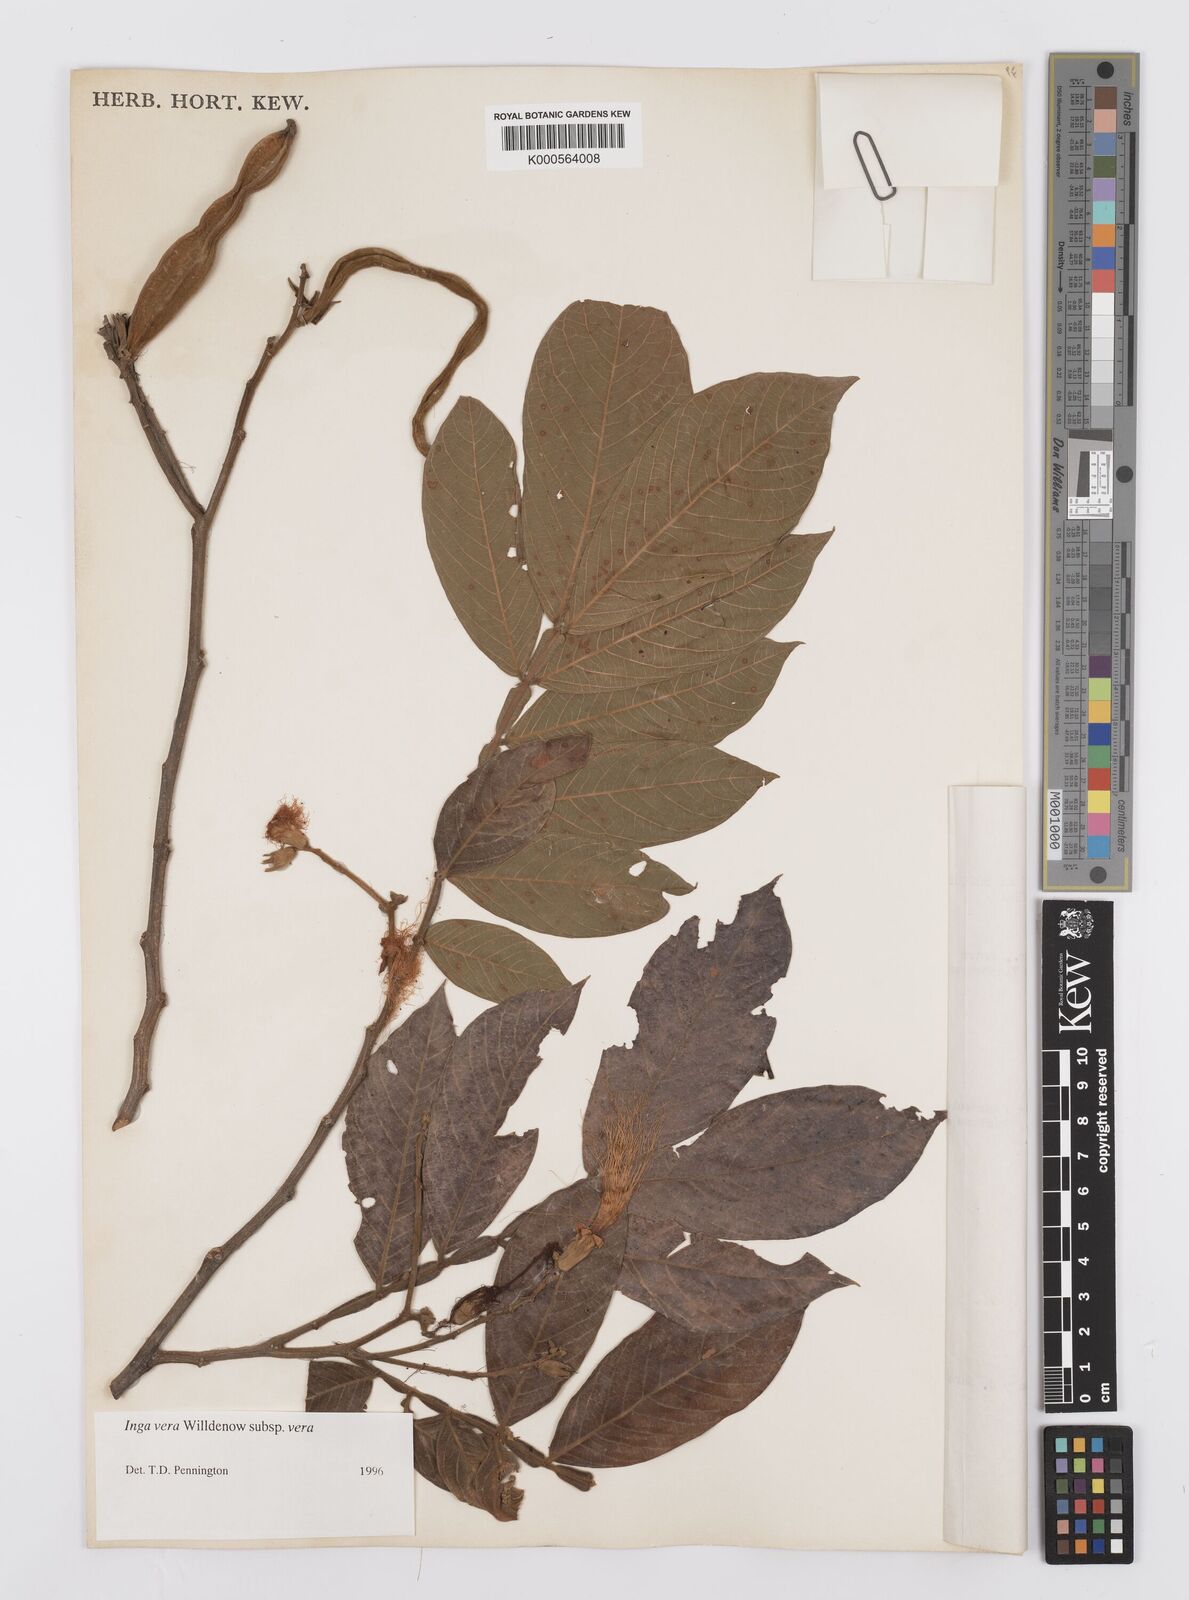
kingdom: Plantae
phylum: Tracheophyta
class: Magnoliopsida
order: Fabales
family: Fabaceae
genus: Inga
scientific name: Inga vera
